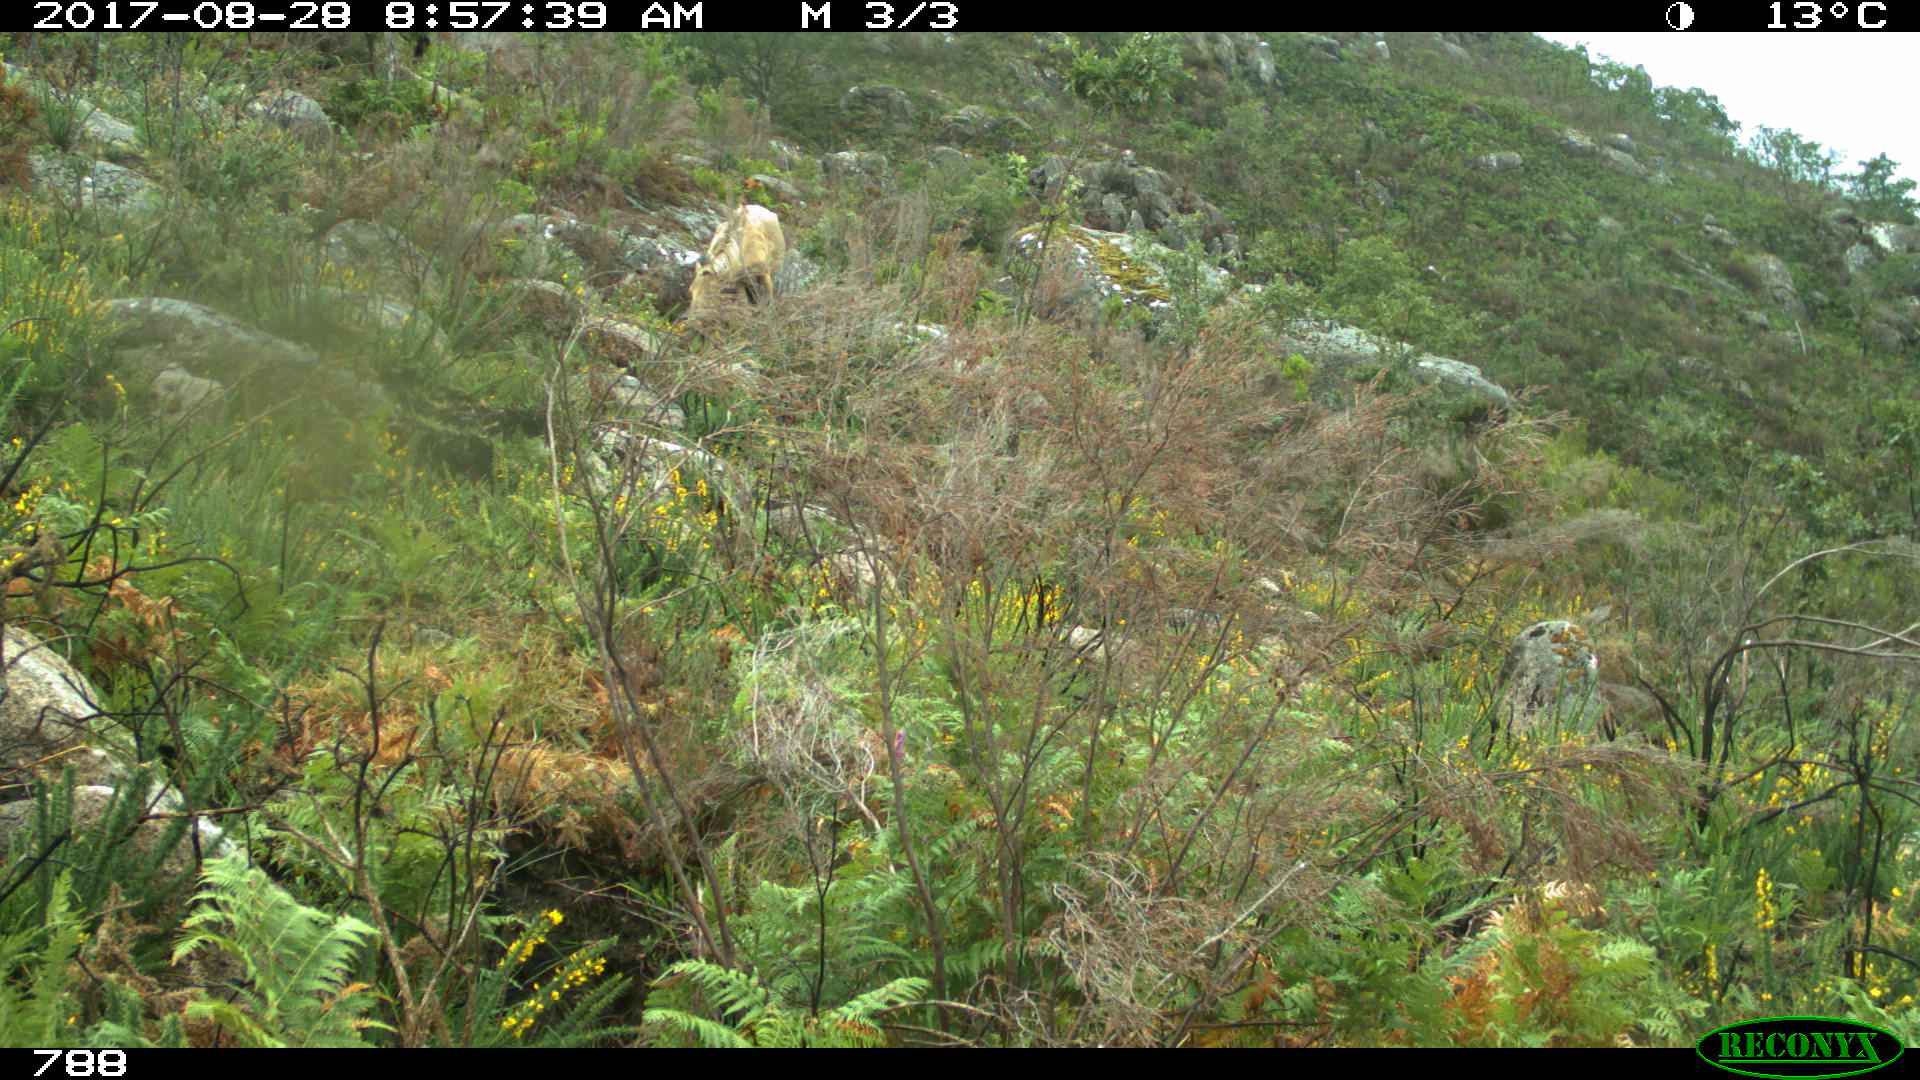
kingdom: Animalia
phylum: Chordata
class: Mammalia
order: Perissodactyla
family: Equidae
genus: Equus
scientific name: Equus caballus
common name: Horse
